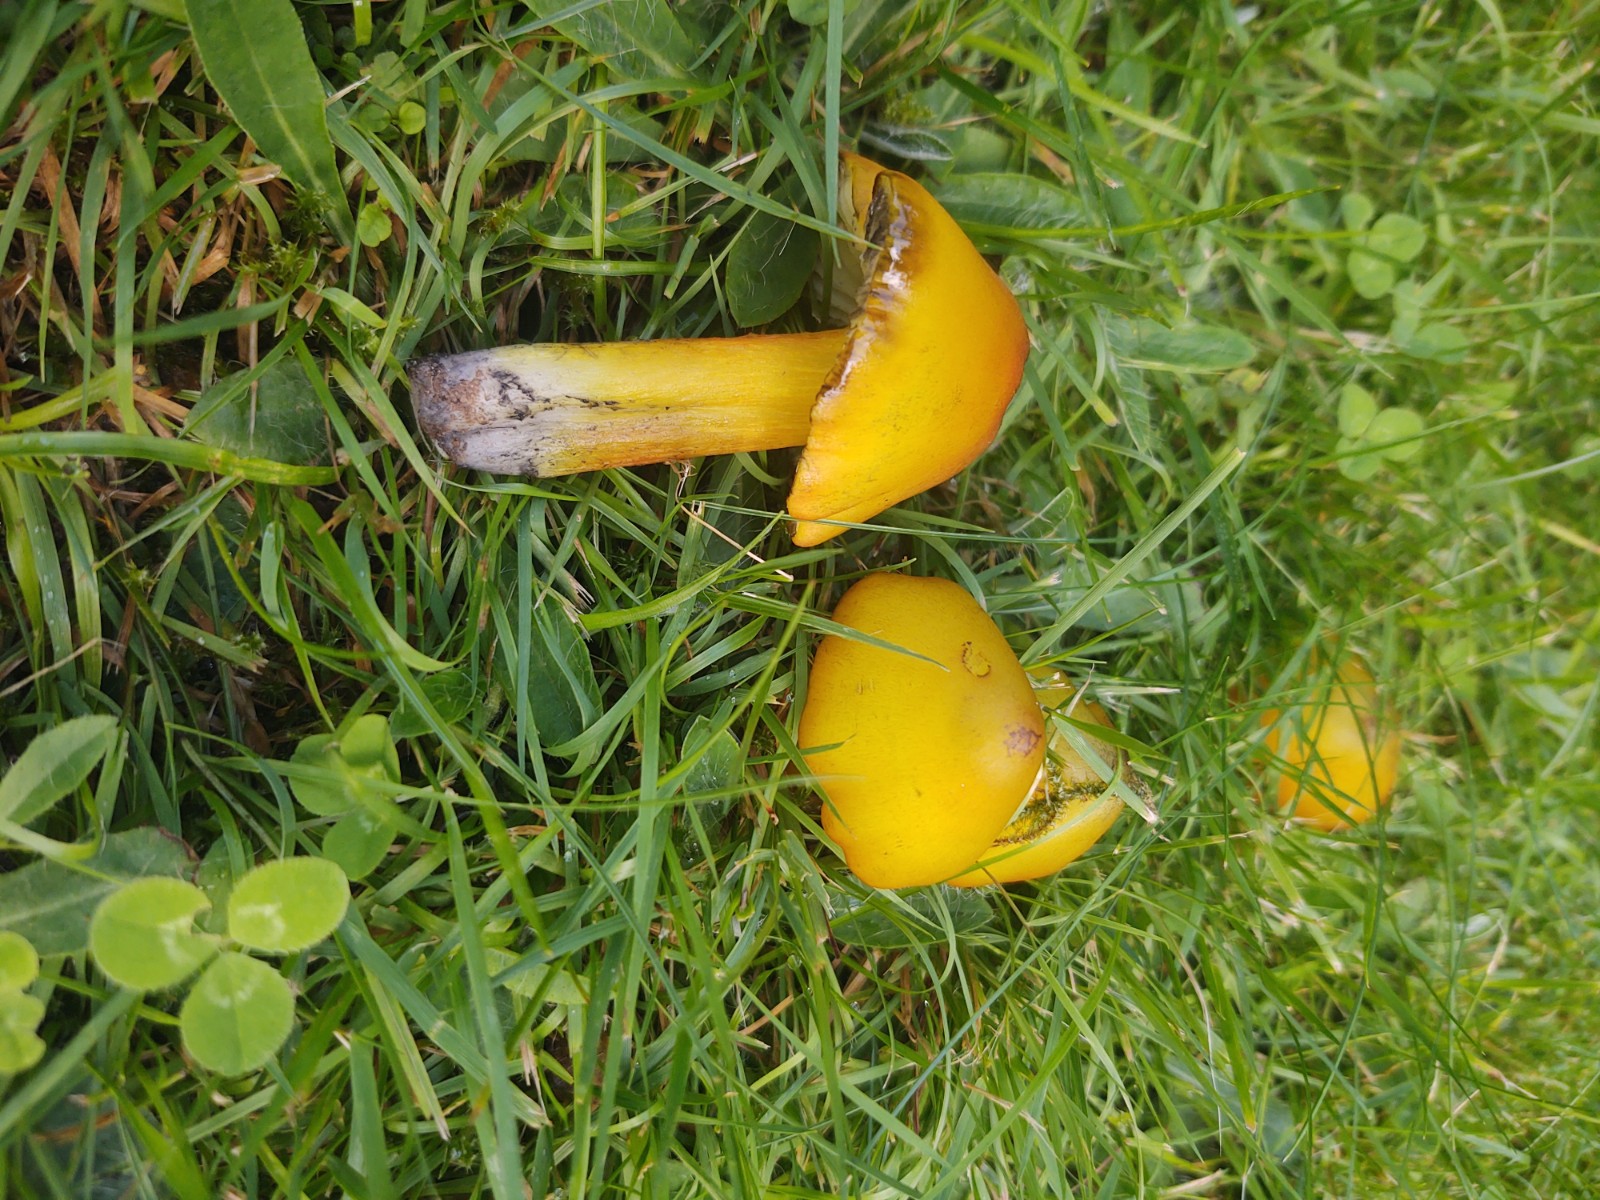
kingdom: Fungi
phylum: Basidiomycota
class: Agaricomycetes
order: Agaricales
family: Hygrophoraceae
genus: Hygrocybe
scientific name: Hygrocybe acutoconica
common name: spidspuklet vokshat
